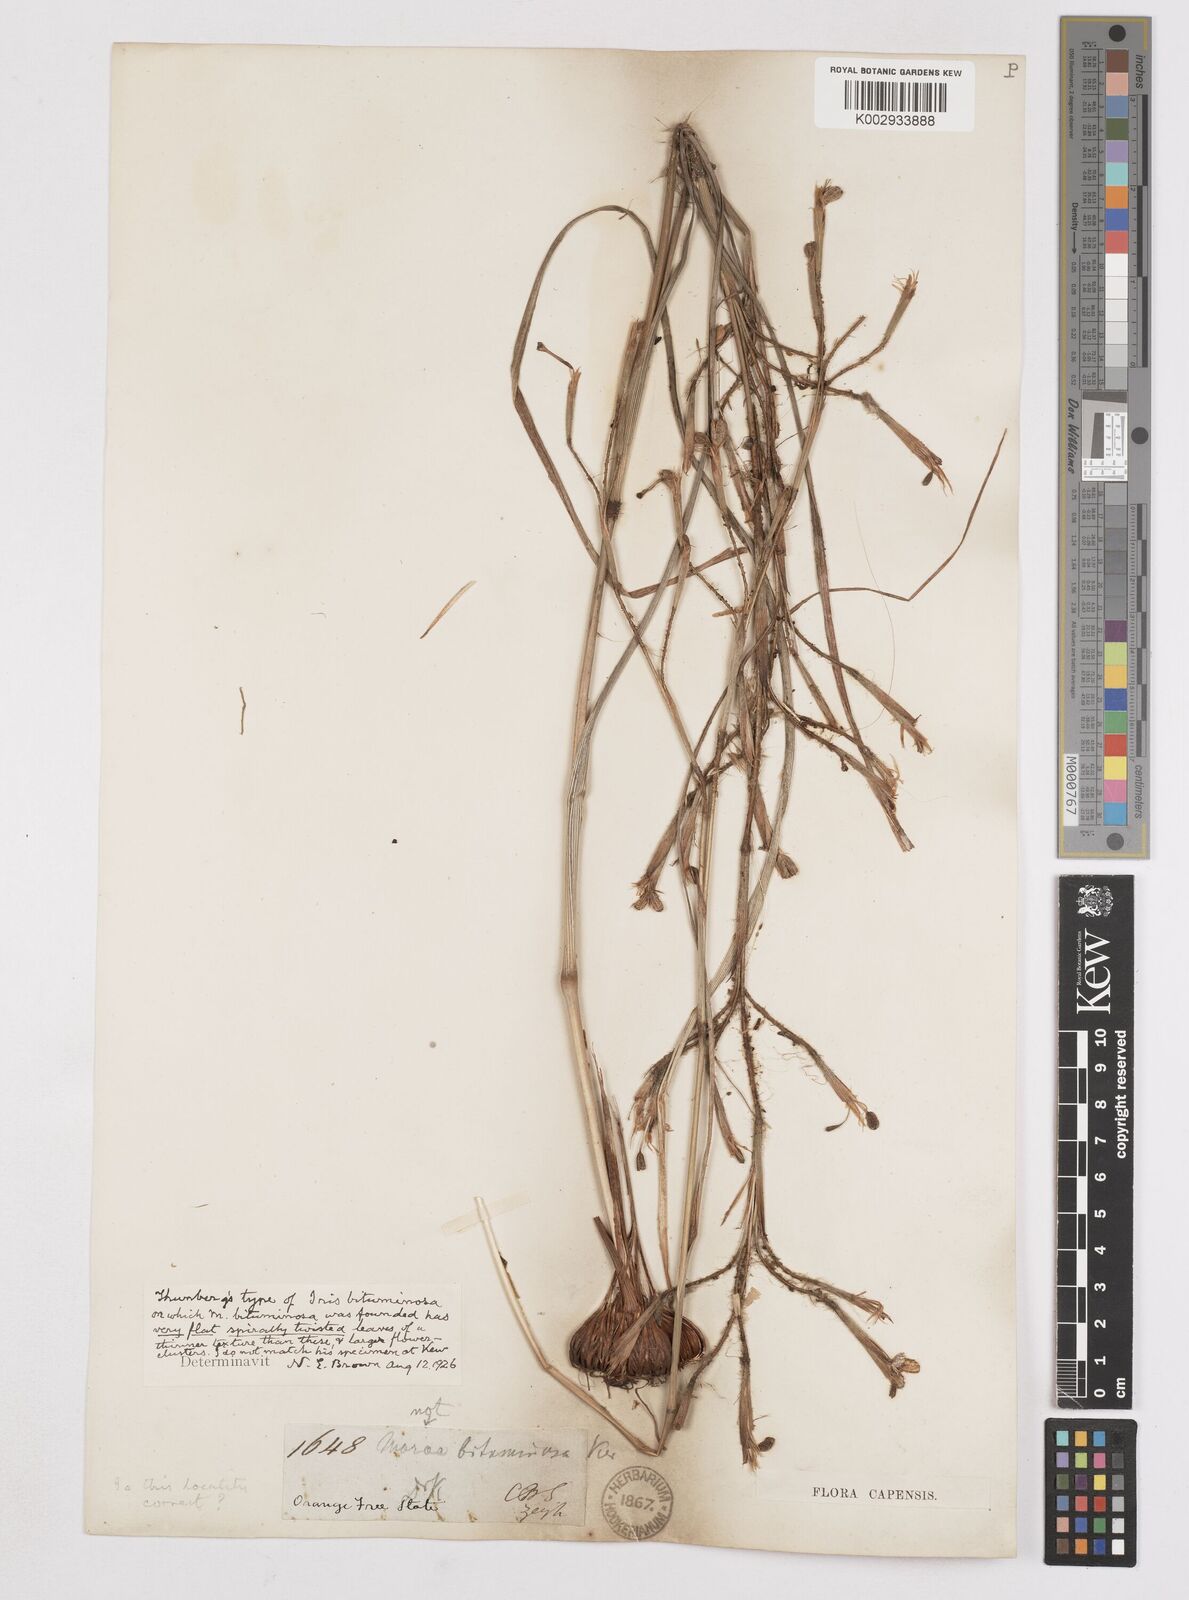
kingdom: Plantae
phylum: Tracheophyta
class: Liliopsida
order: Asparagales
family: Iridaceae
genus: Moraea
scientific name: Moraea viscaria
